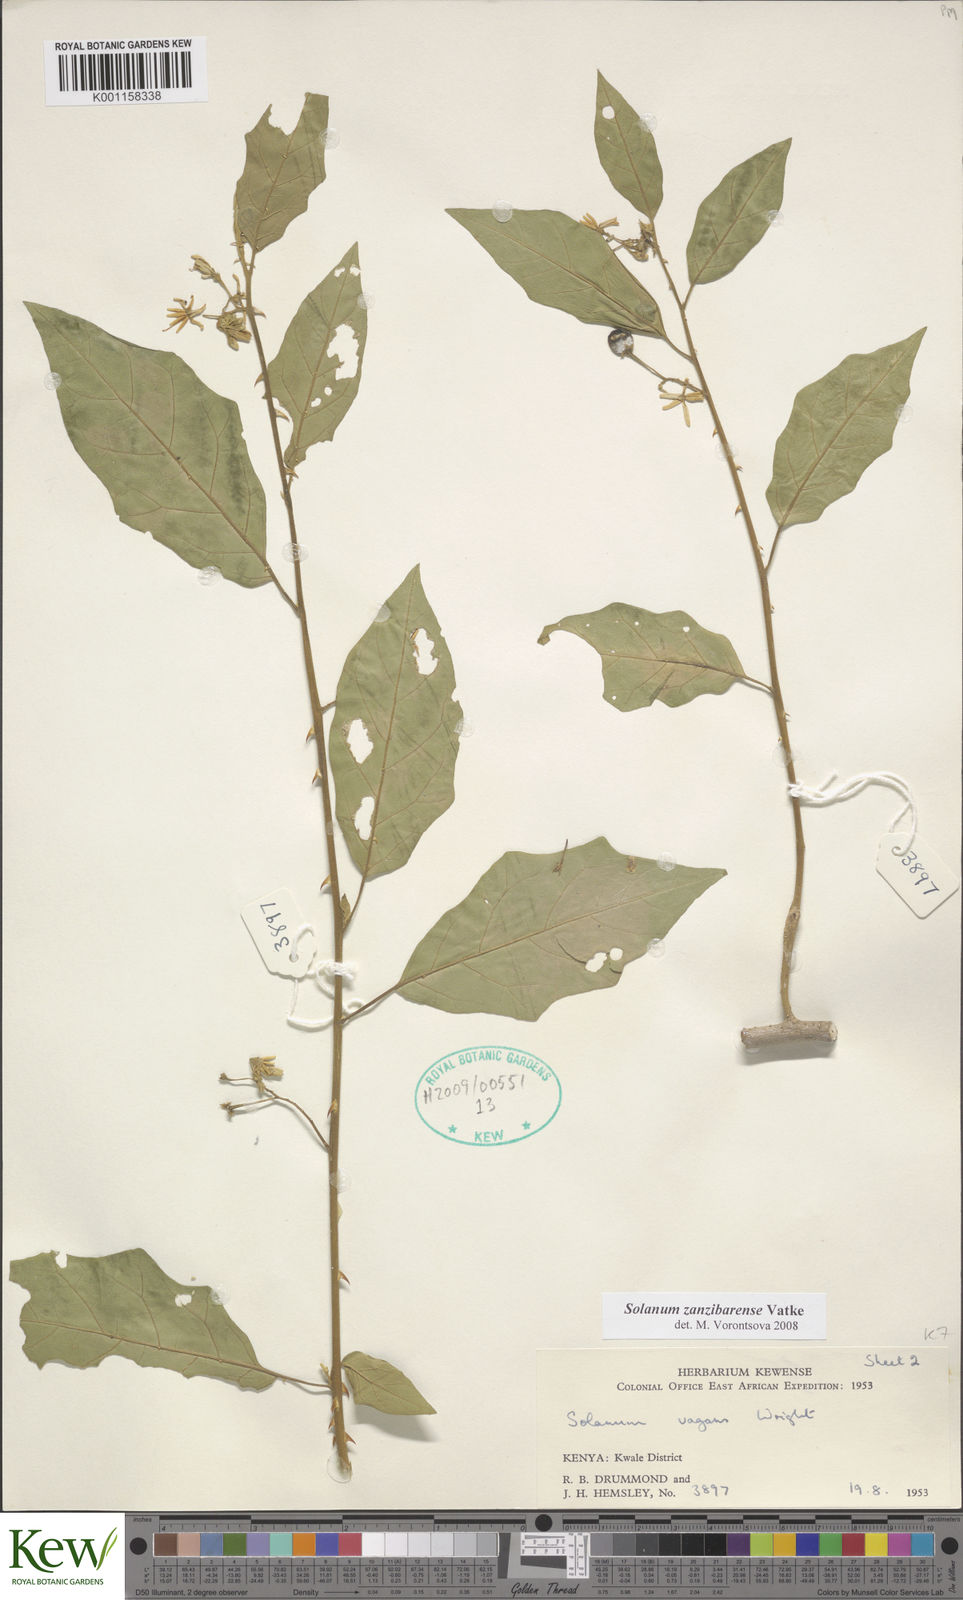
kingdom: Plantae
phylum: Tracheophyta
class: Magnoliopsida
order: Solanales
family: Solanaceae
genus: Solanum
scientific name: Solanum zanzibarense
